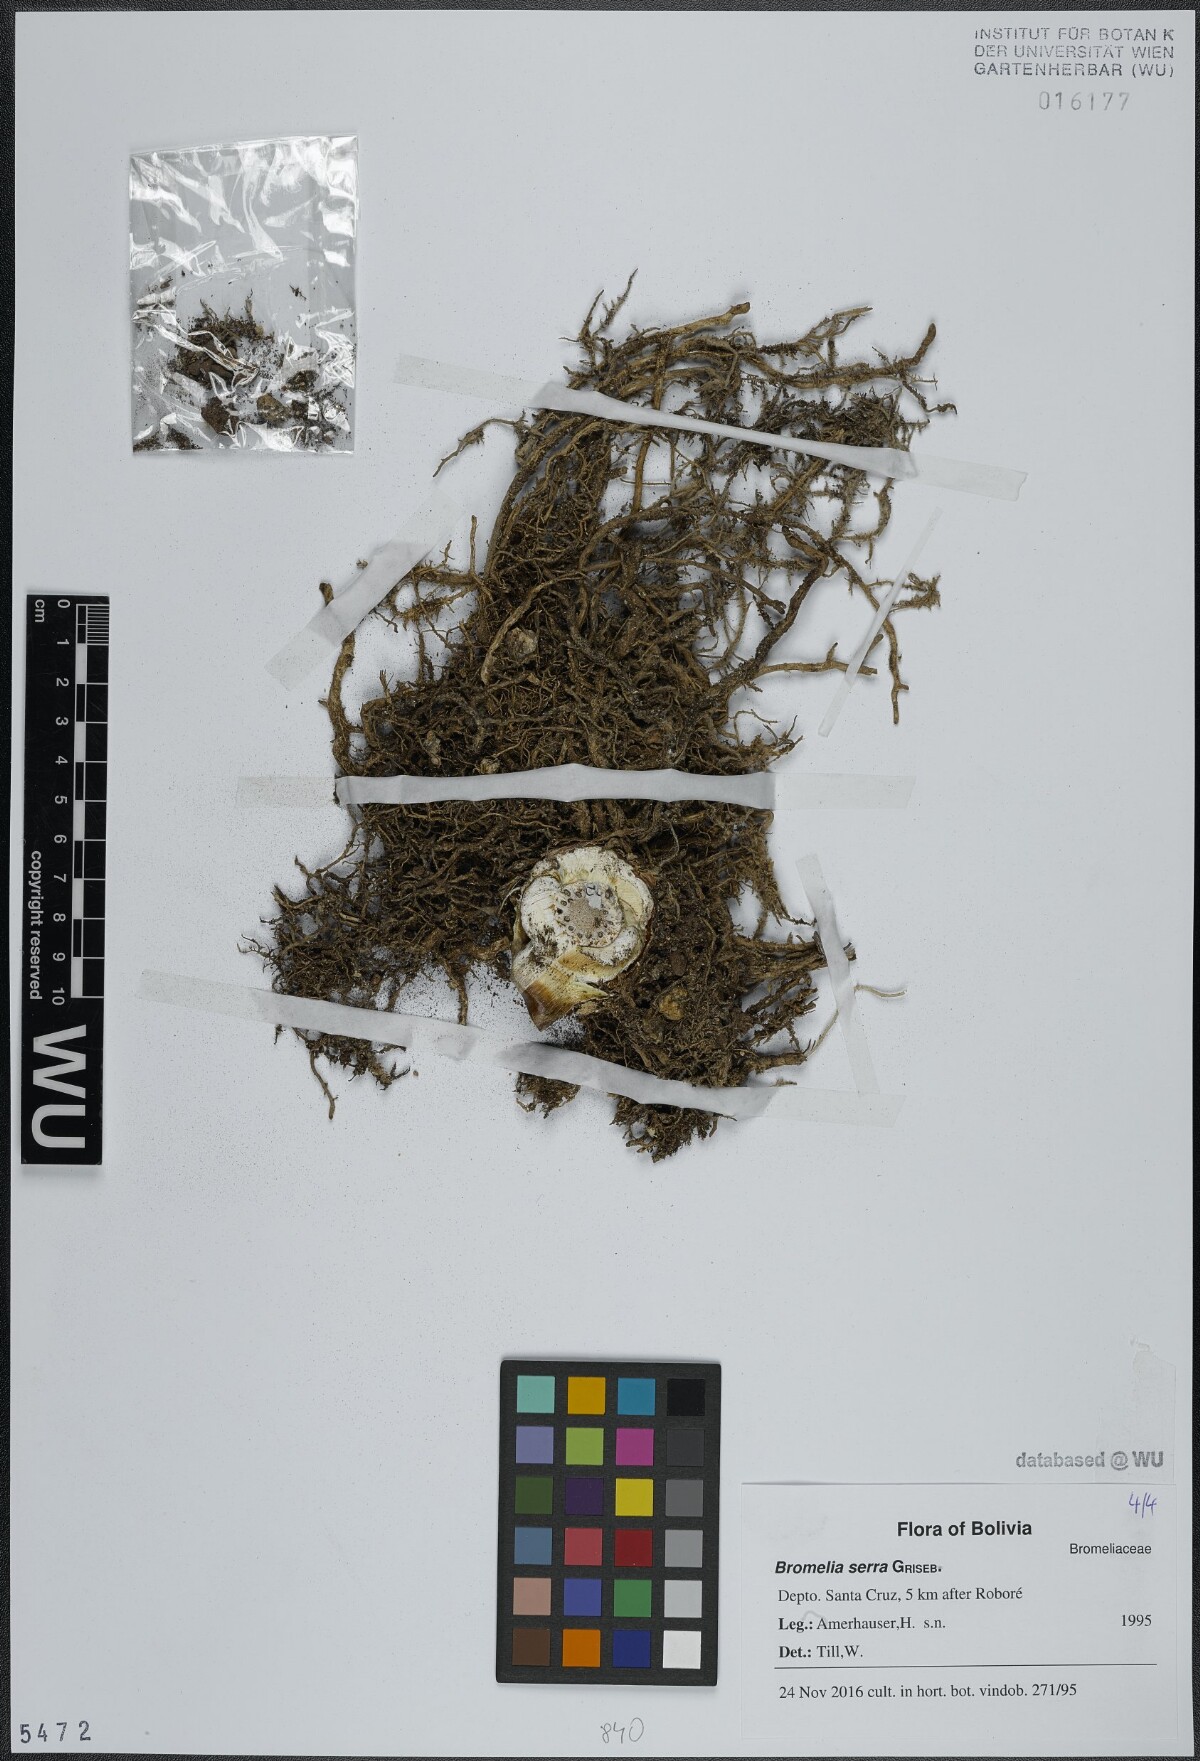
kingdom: Plantae
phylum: Tracheophyta
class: Liliopsida
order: Poales
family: Bromeliaceae
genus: Bromelia
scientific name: Bromelia serra
